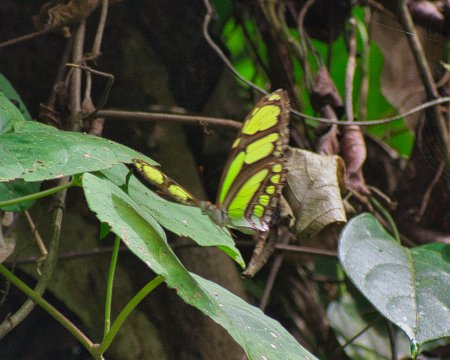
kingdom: Animalia
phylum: Arthropoda
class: Insecta
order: Lepidoptera
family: Nymphalidae
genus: Philaethria
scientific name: Philaethria dido
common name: Northern Green Longwing
